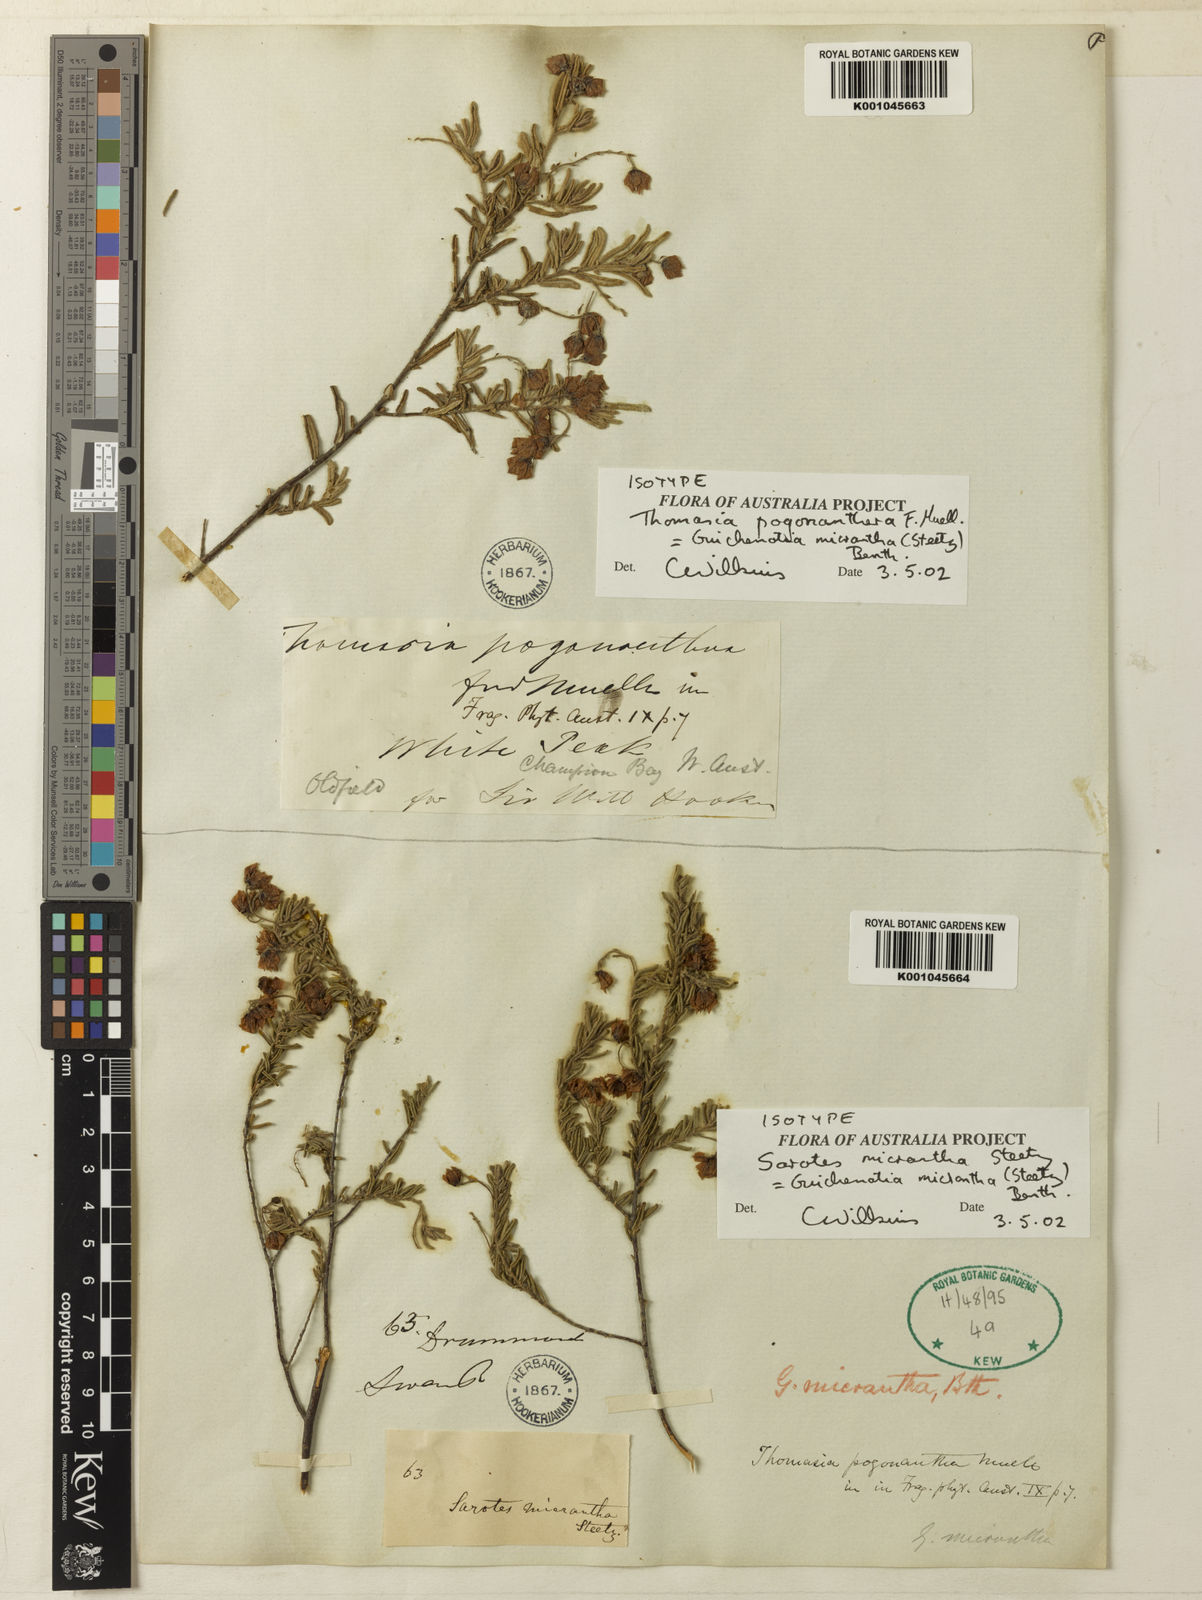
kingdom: Plantae
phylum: Tracheophyta
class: Magnoliopsida
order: Malvales
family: Malvaceae
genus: Guichenotia
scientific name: Guichenotia micrantha
